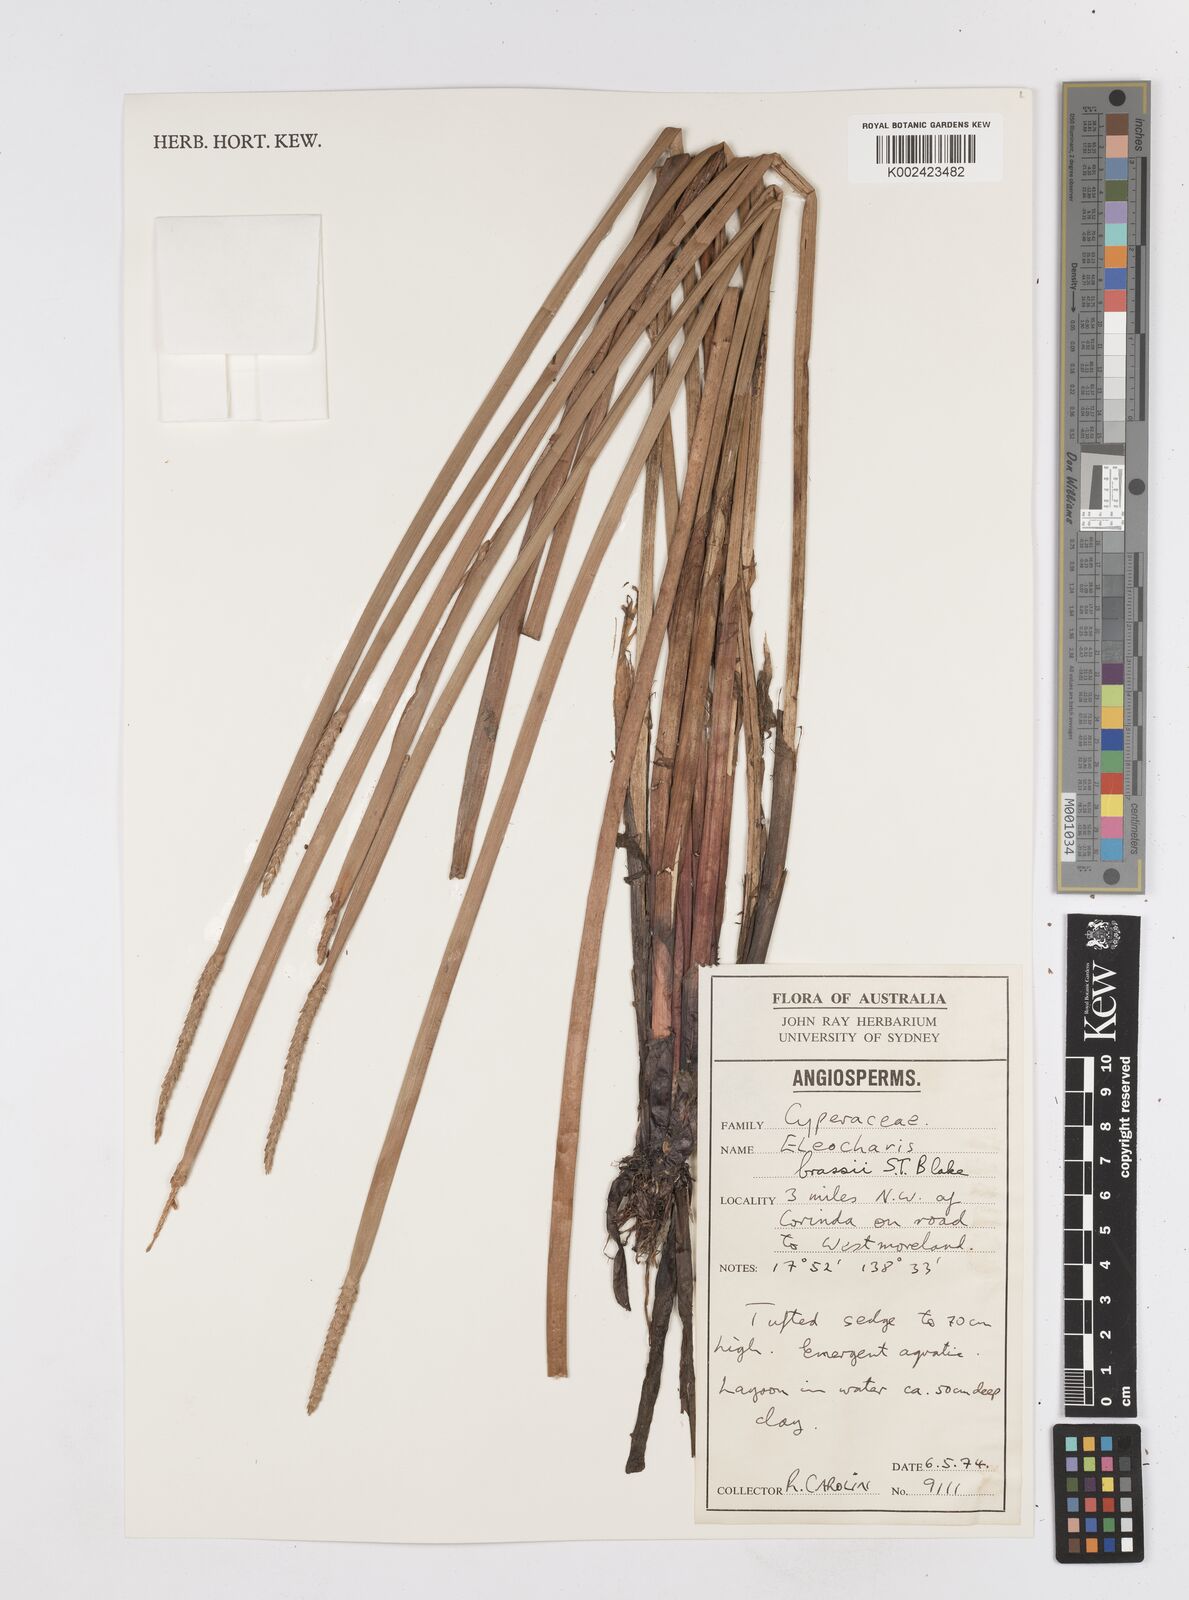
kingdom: Plantae
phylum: Tracheophyta
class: Liliopsida
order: Poales
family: Cyperaceae
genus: Eleocharis
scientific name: Eleocharis brassii
